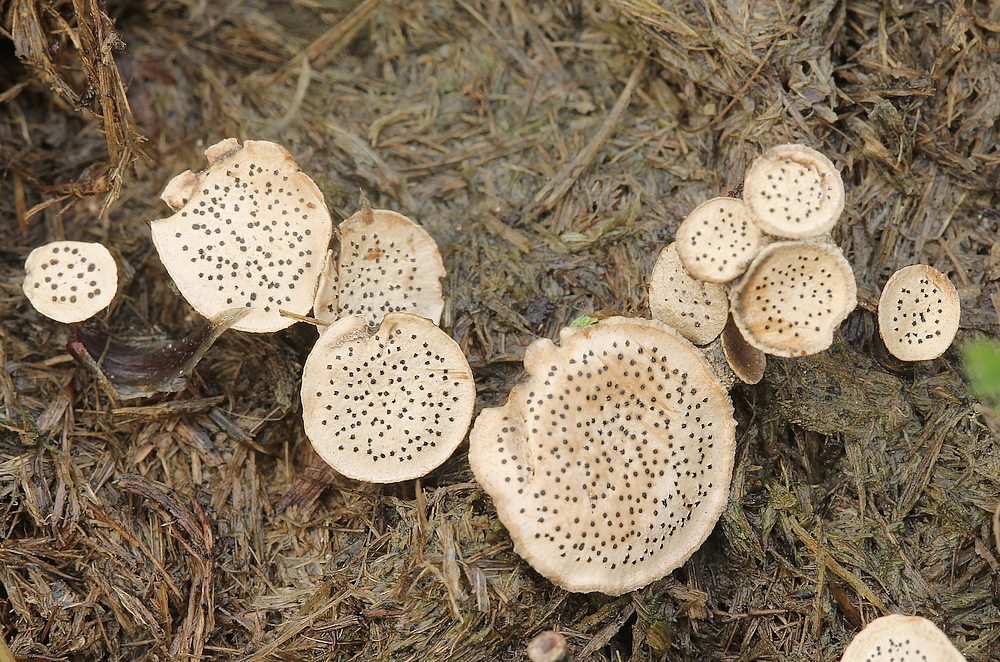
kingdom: Fungi
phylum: Ascomycota
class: Sordariomycetes
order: Xylariales
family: Xylariaceae
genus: Poronia
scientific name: Poronia punctata
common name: stor priksvamp
